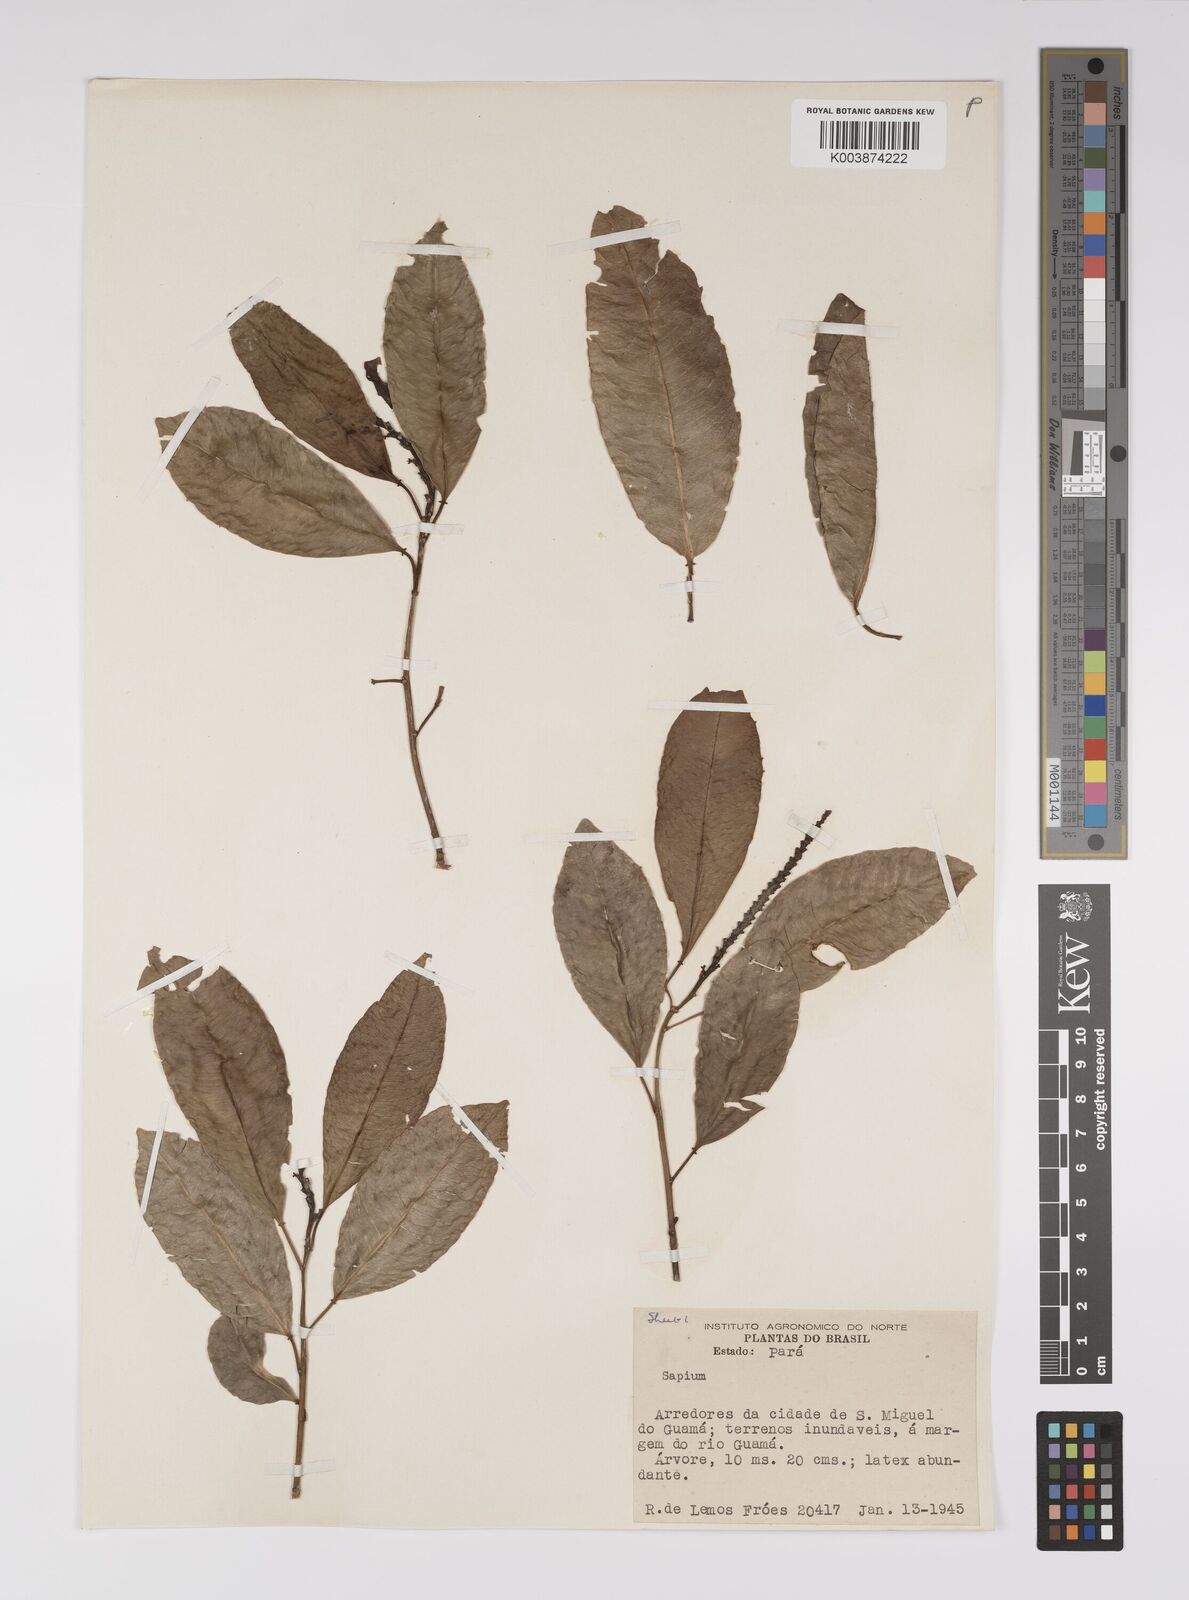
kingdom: Plantae
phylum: Tracheophyta
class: Magnoliopsida
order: Malpighiales
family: Euphorbiaceae
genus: Sapium
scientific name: Sapium
